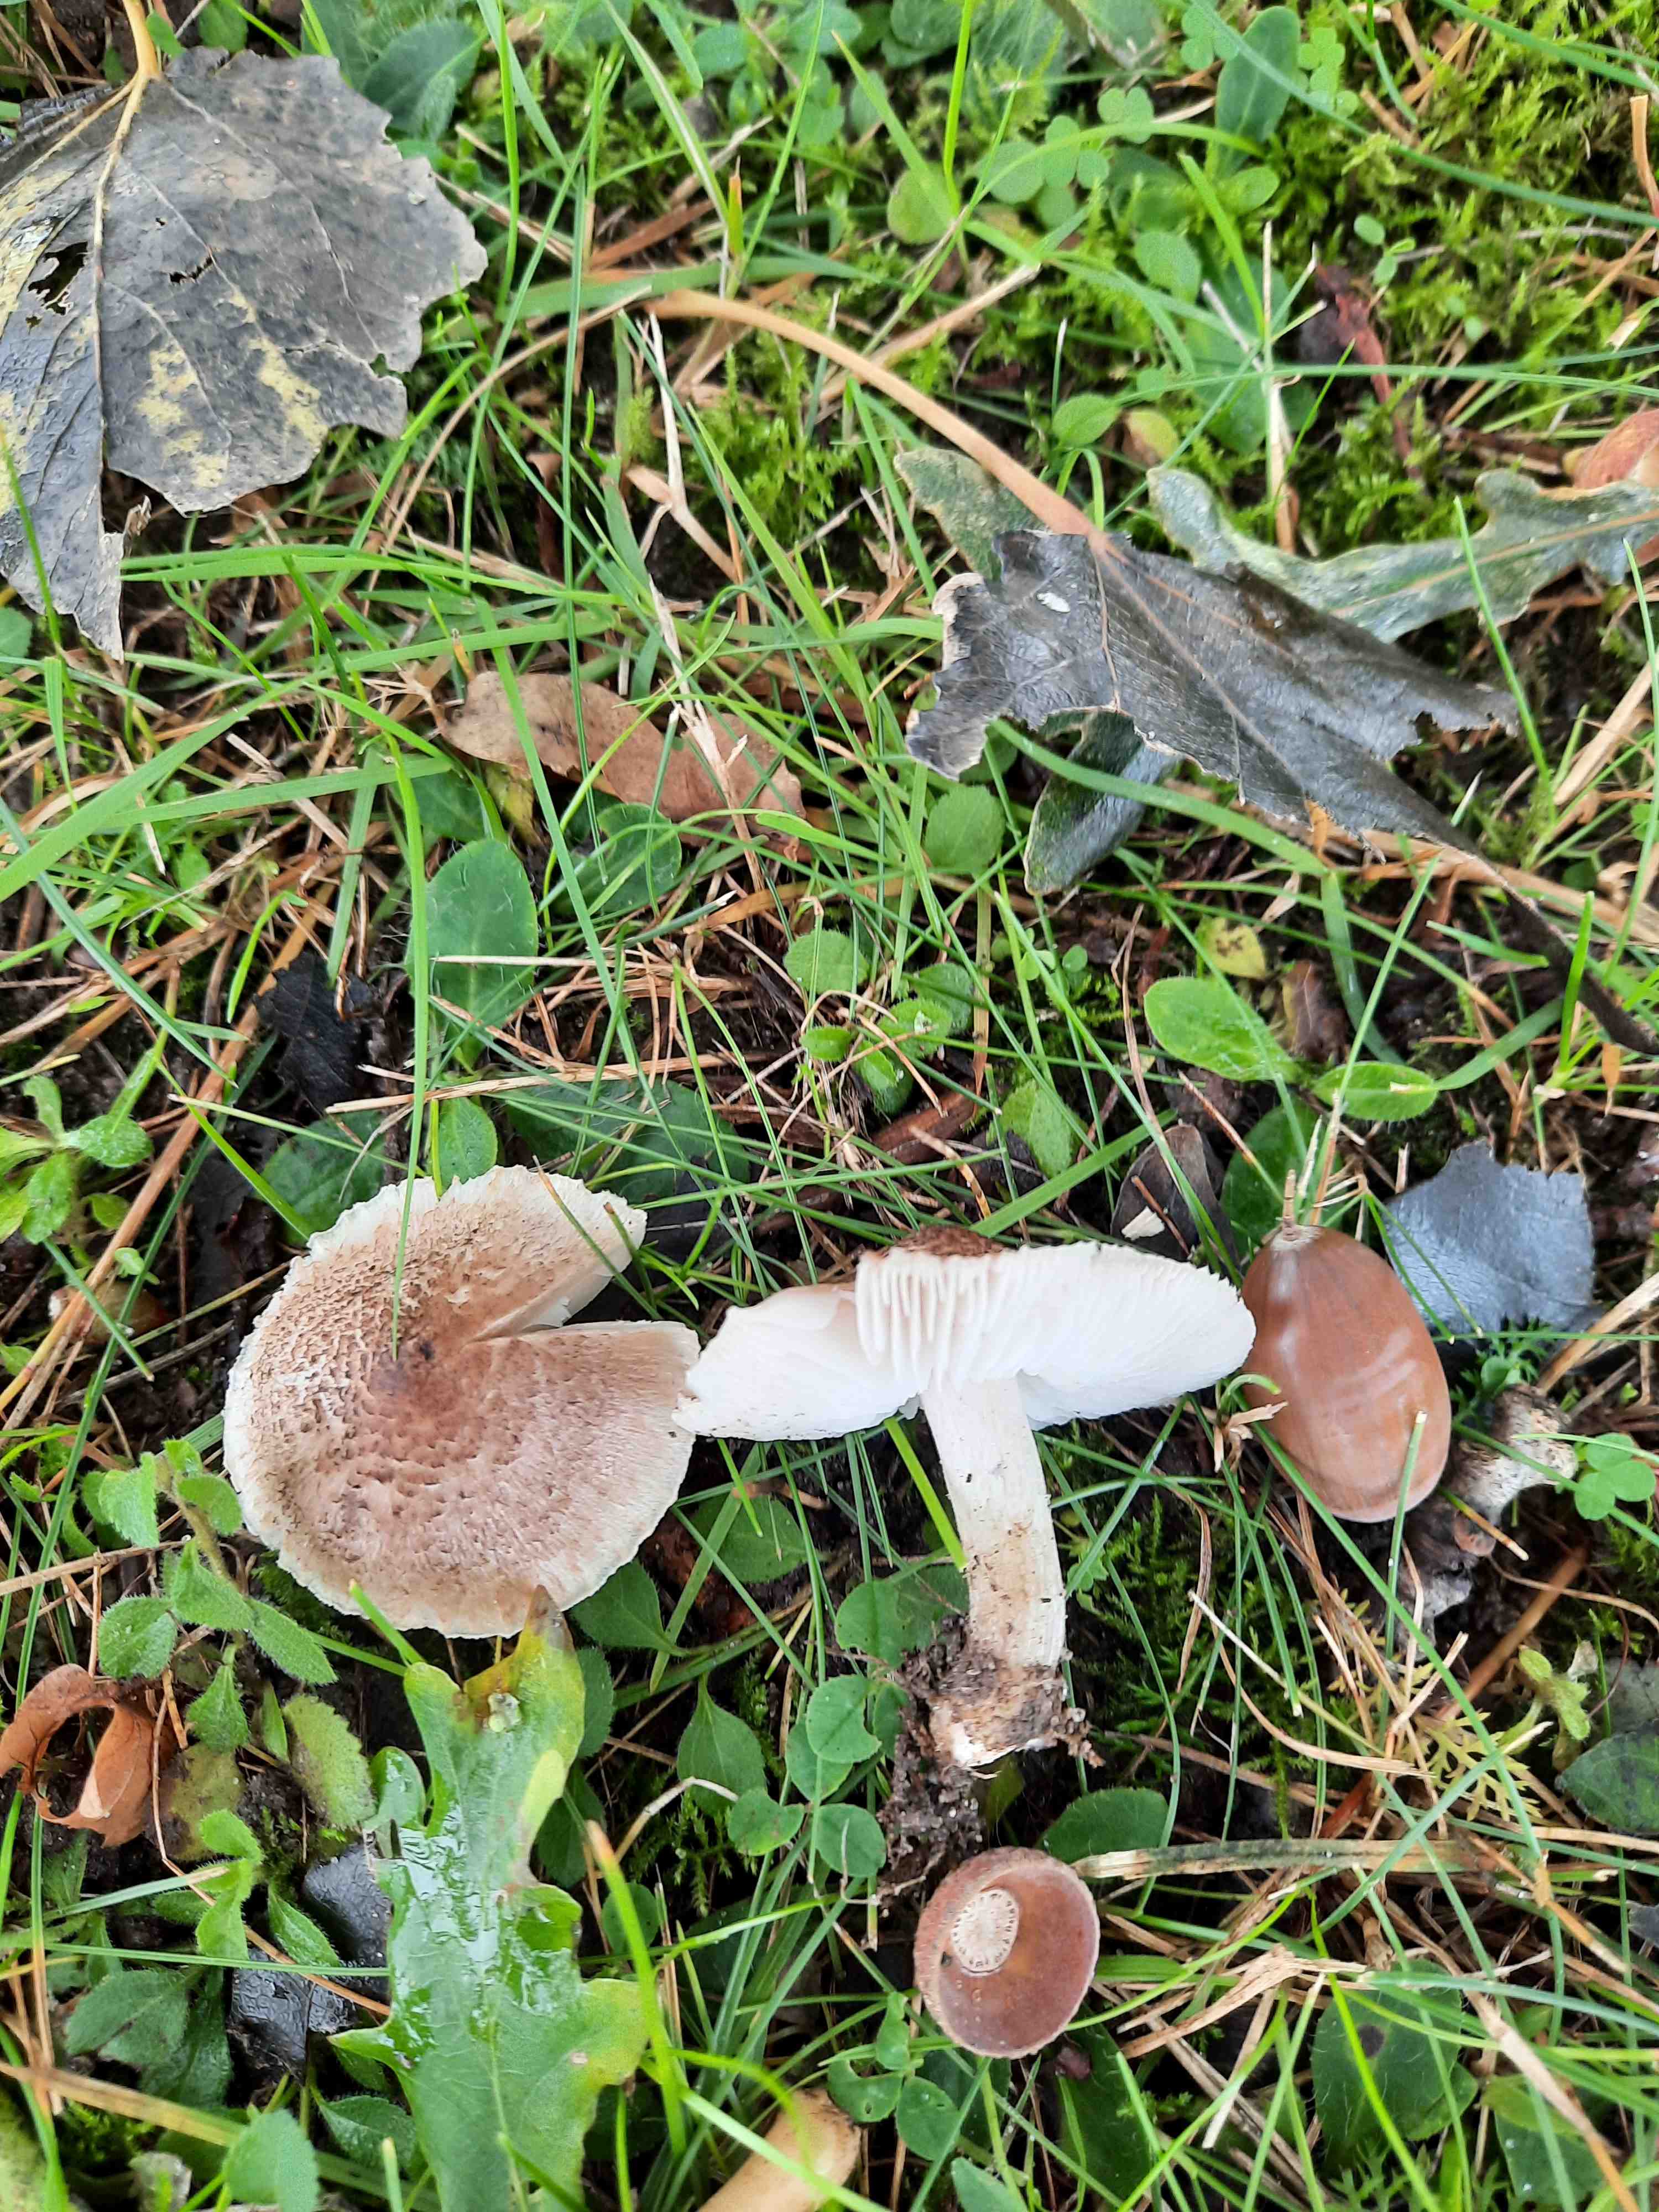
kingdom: Fungi
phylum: Basidiomycota
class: Agaricomycetes
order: Agaricales
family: Tricholomataceae
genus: Tricholoma
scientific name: Tricholoma argyraceum
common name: slør-ridderhat
